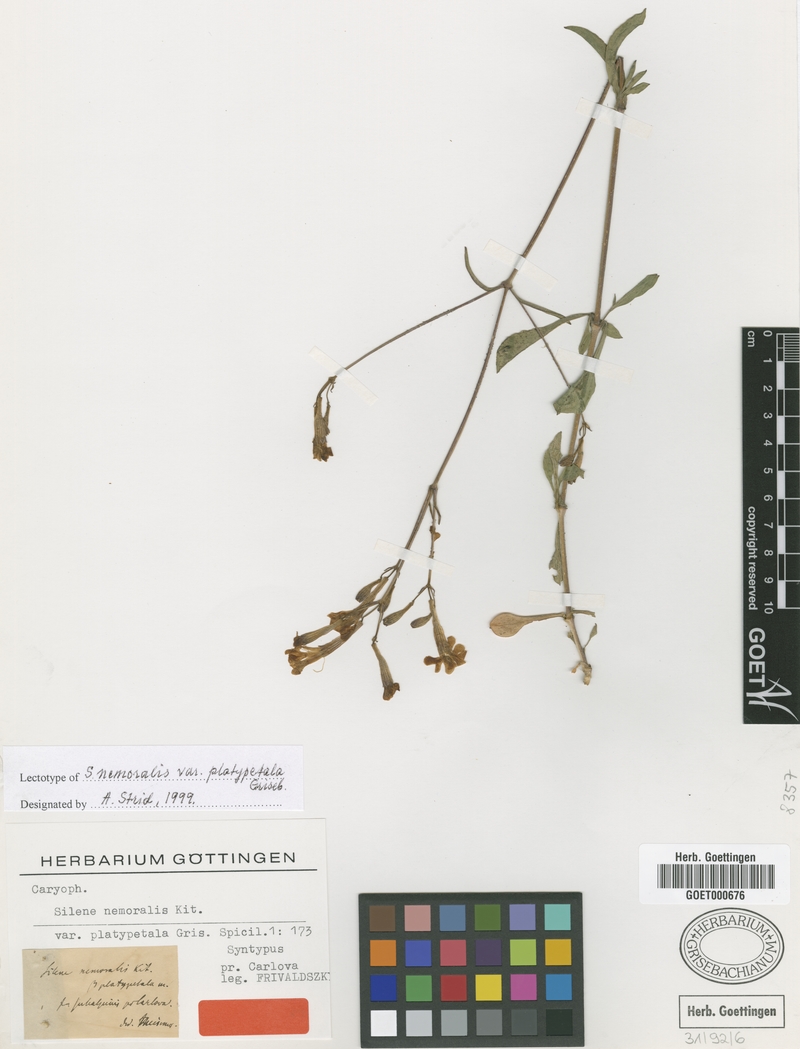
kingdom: Plantae
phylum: Tracheophyta
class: Magnoliopsida
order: Caryophyllales
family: Caryophyllaceae
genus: Silene
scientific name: Silene italica
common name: Italian catchfly
